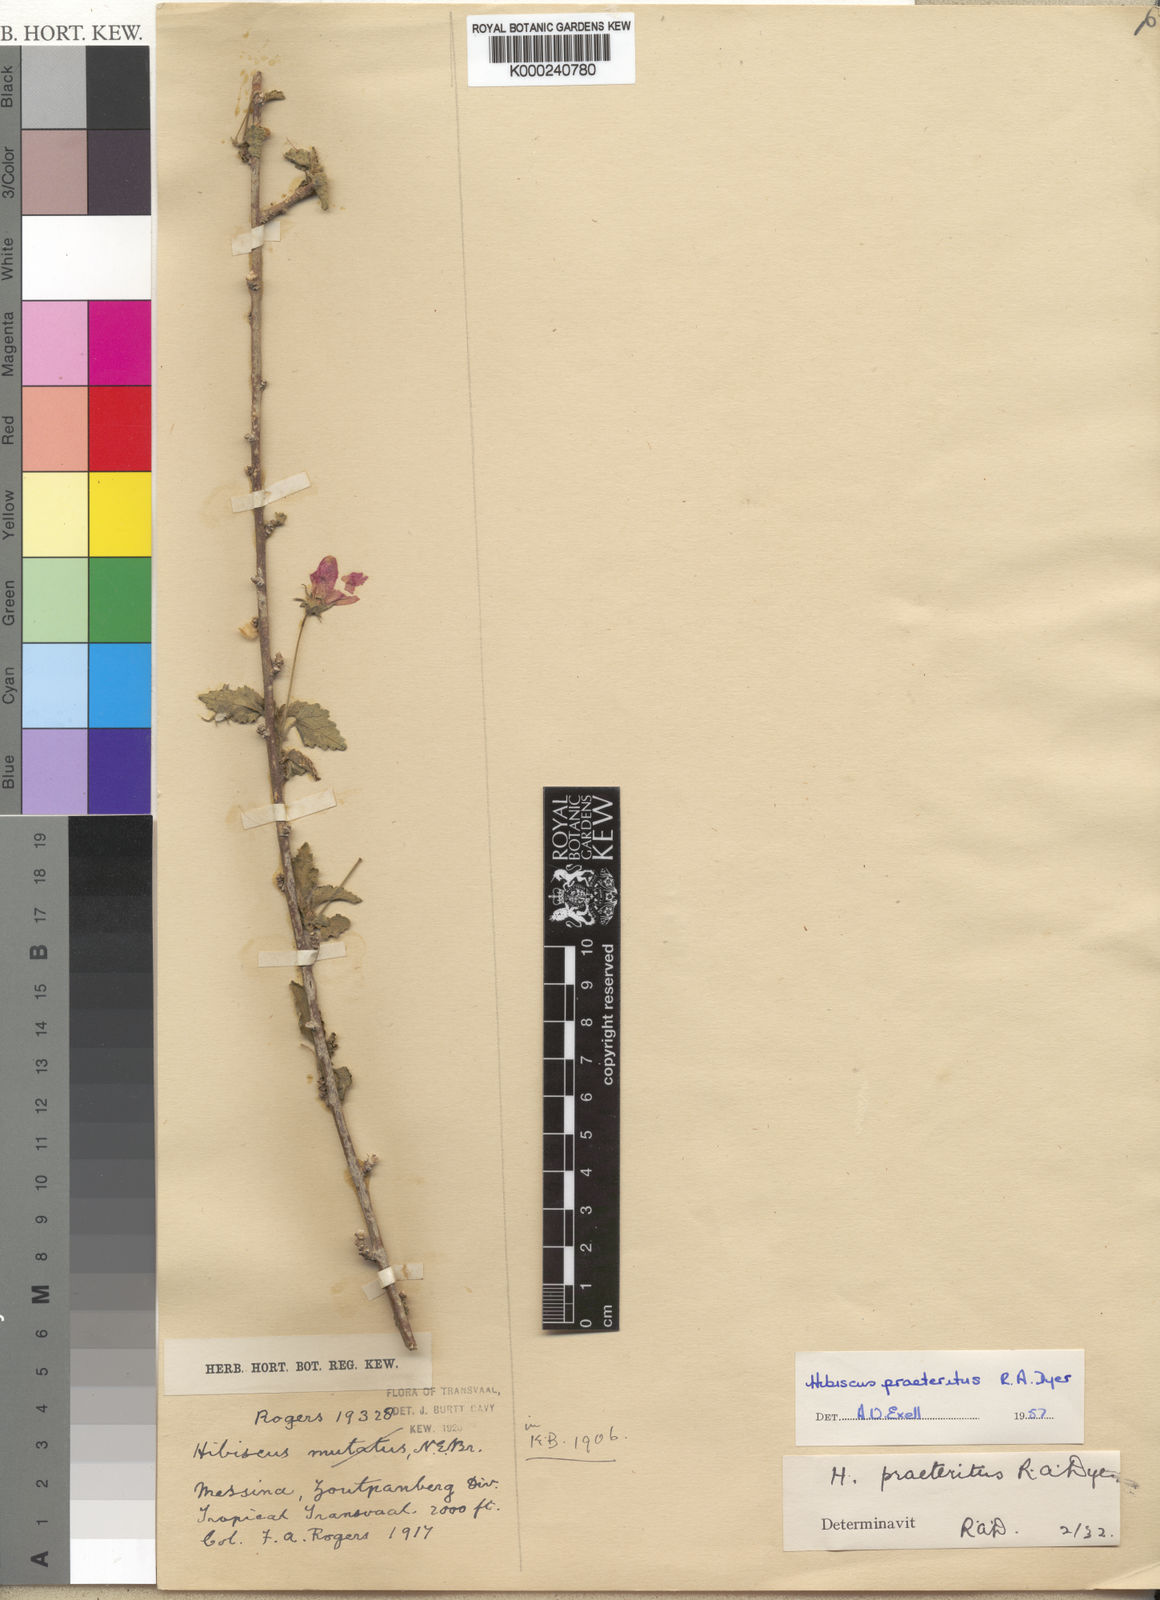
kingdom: Plantae
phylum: Tracheophyta
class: Magnoliopsida
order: Malvales
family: Malvaceae
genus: Hibiscus
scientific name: Hibiscus praeteritus
